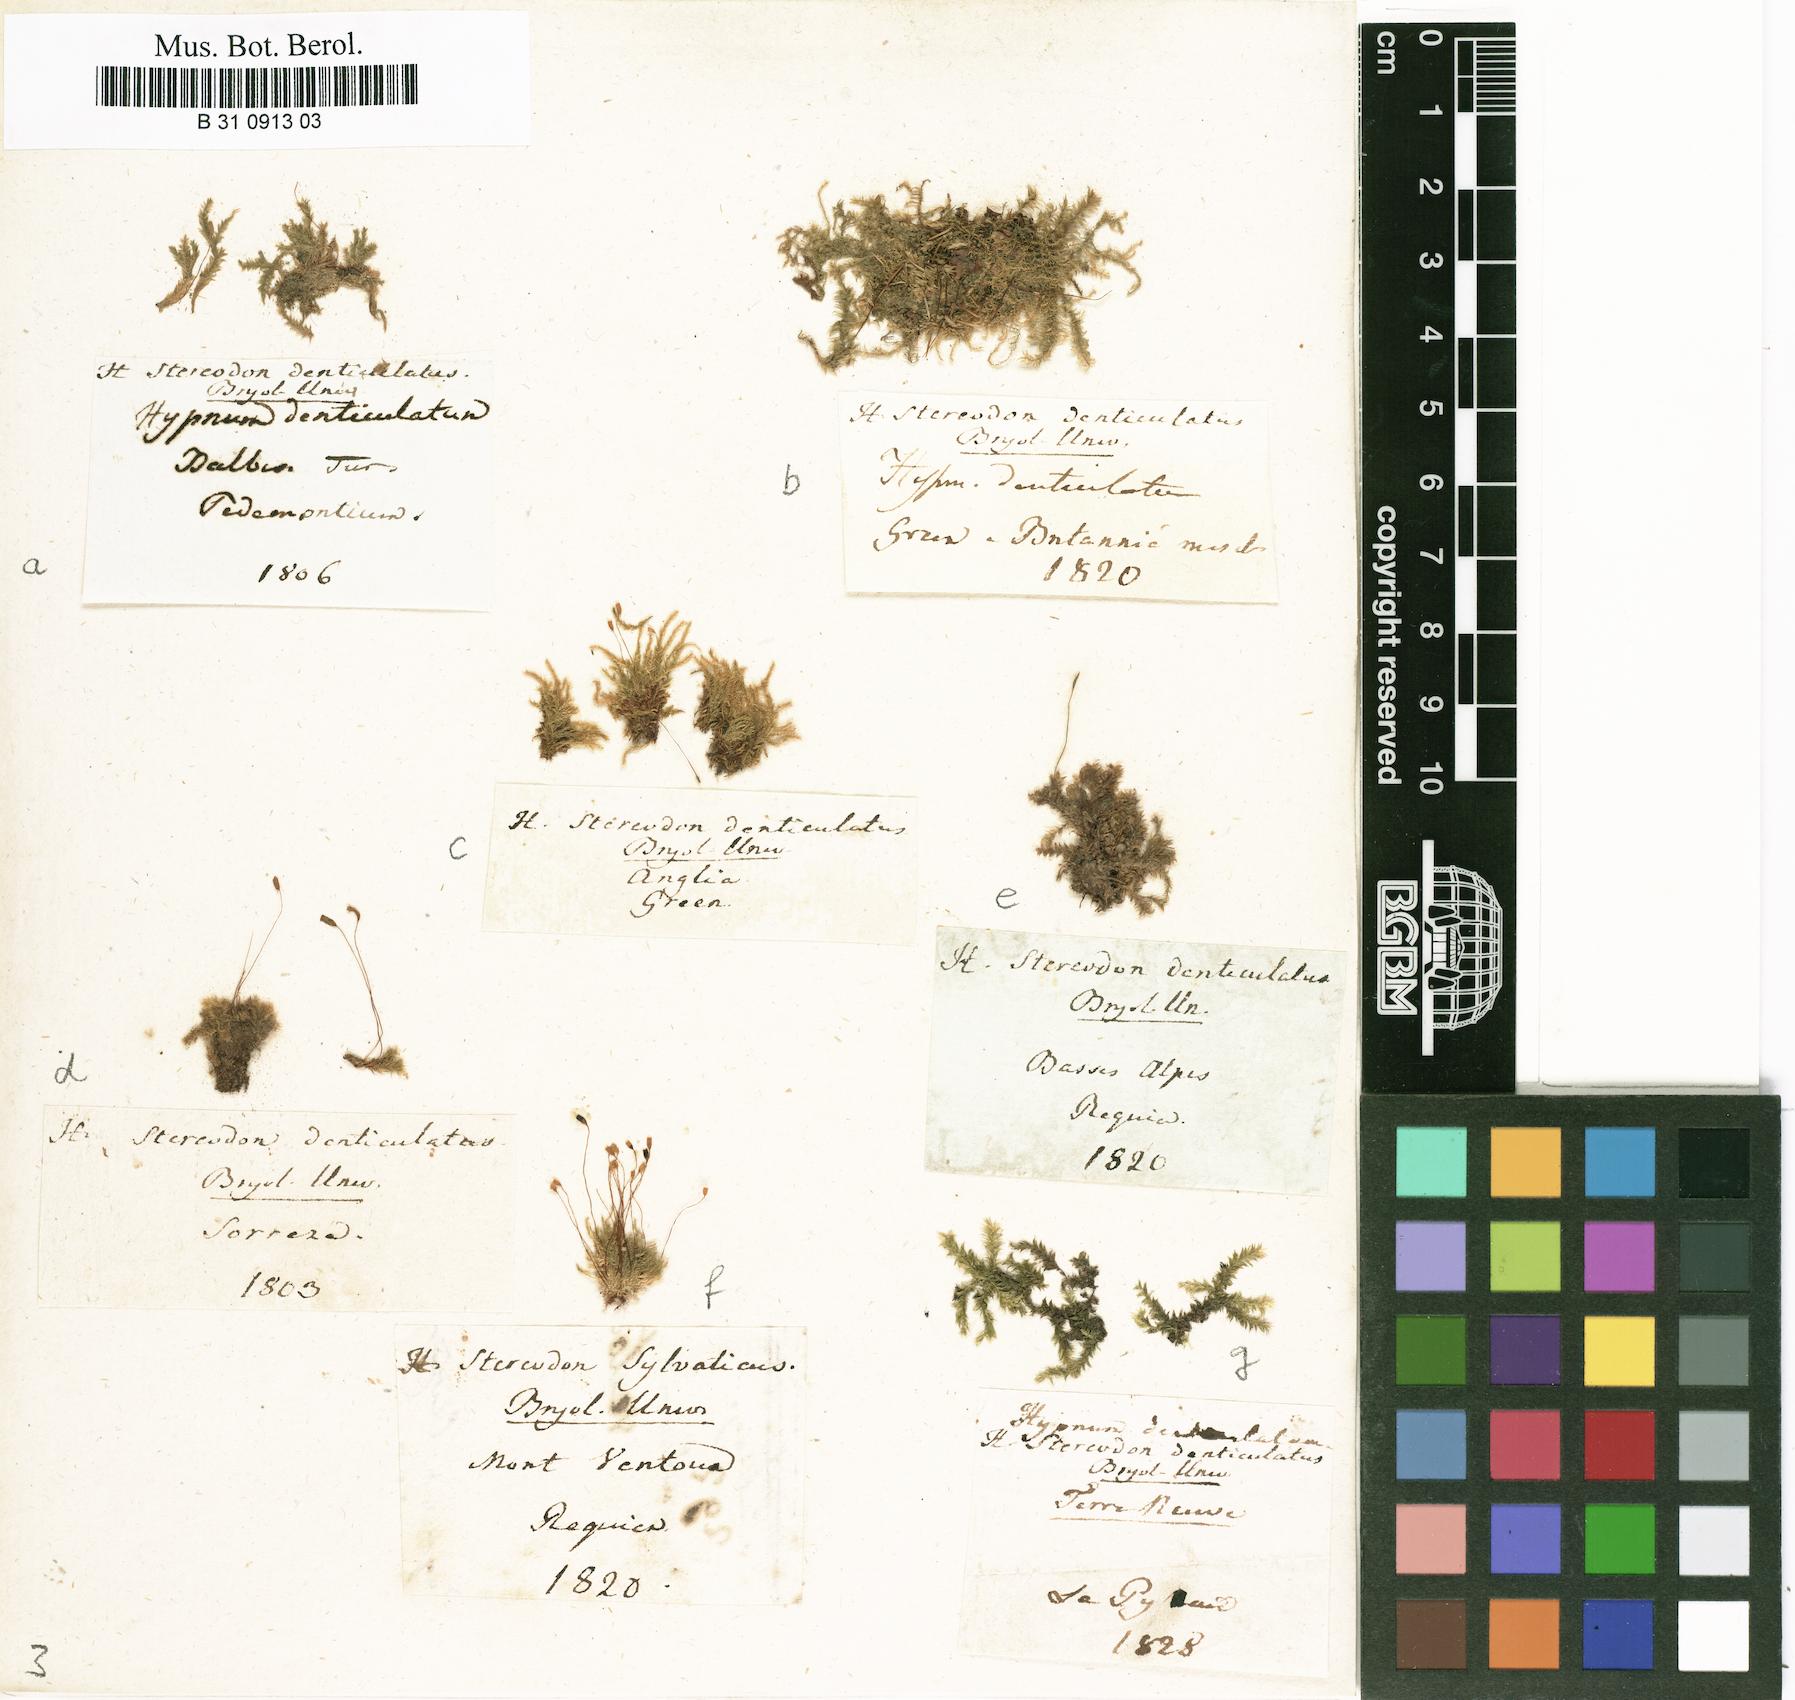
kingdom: Plantae
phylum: Bryophyta
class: Bryopsida
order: Hypnales
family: Plagiotheciaceae
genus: Plagiothecium
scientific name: Plagiothecium denticulatum
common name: Dented silk moss
